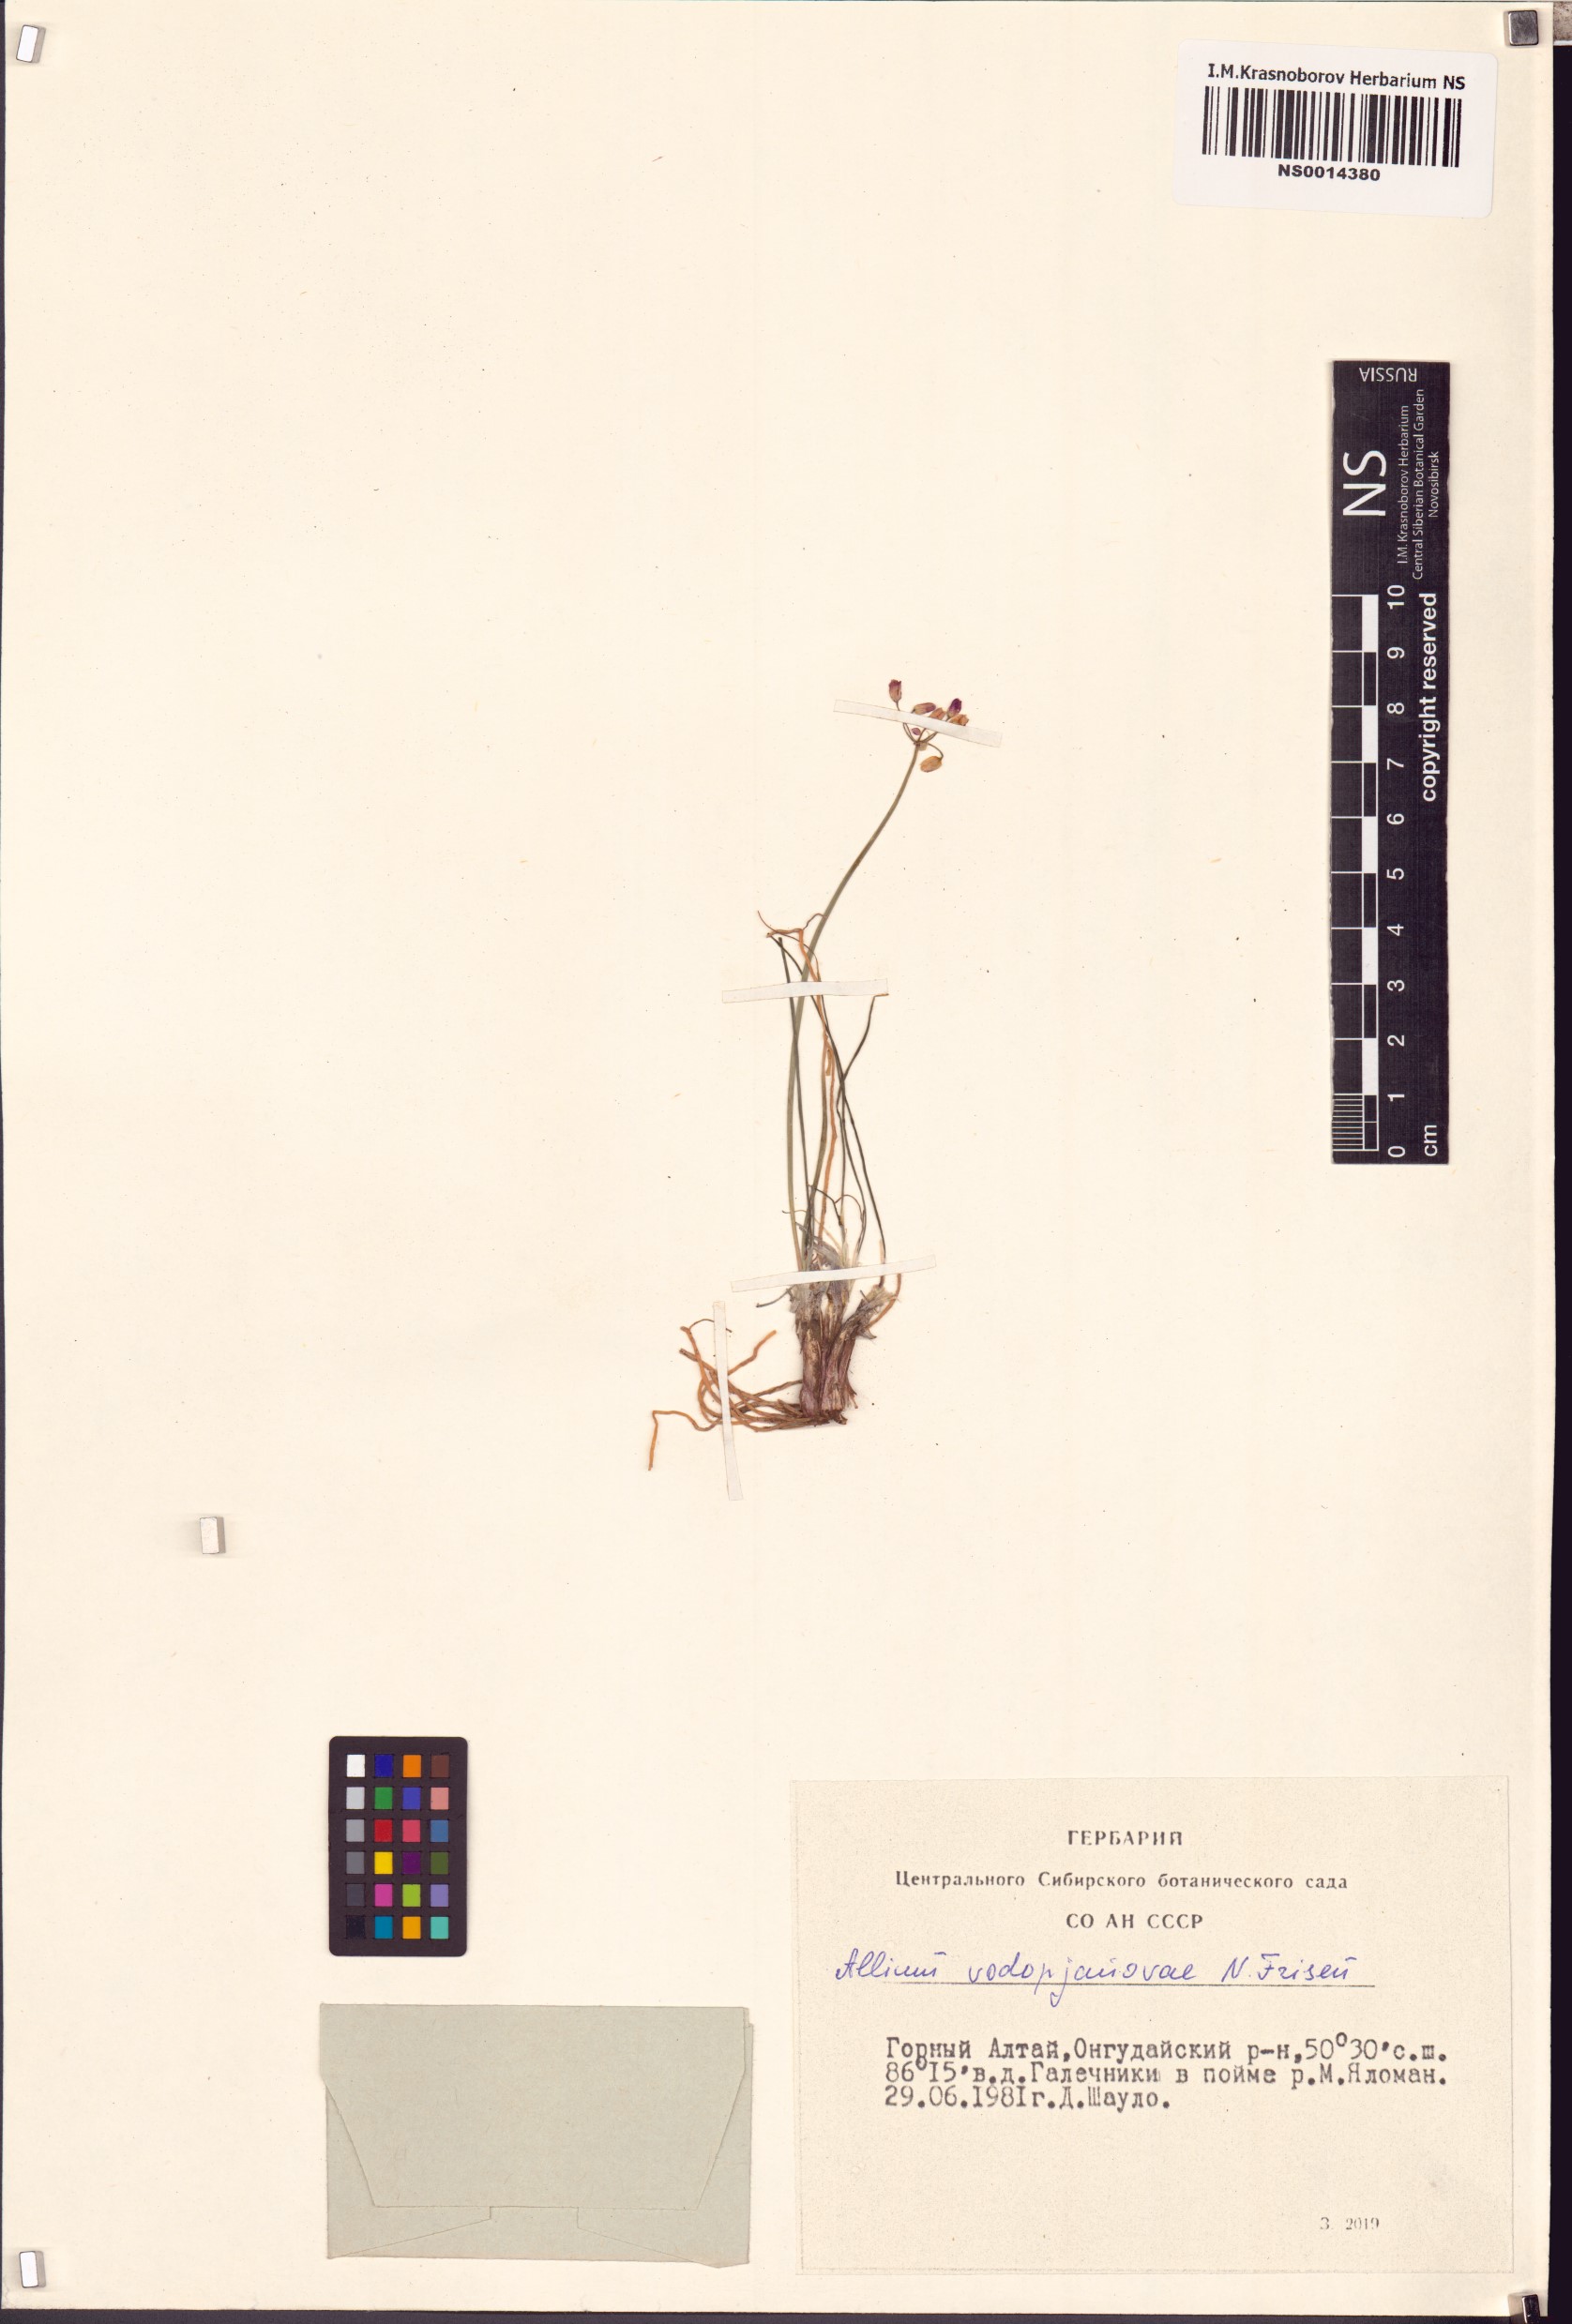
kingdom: Plantae
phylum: Tracheophyta
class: Liliopsida
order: Asparagales
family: Amaryllidaceae
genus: Allium
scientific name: Allium vodopjanovae
